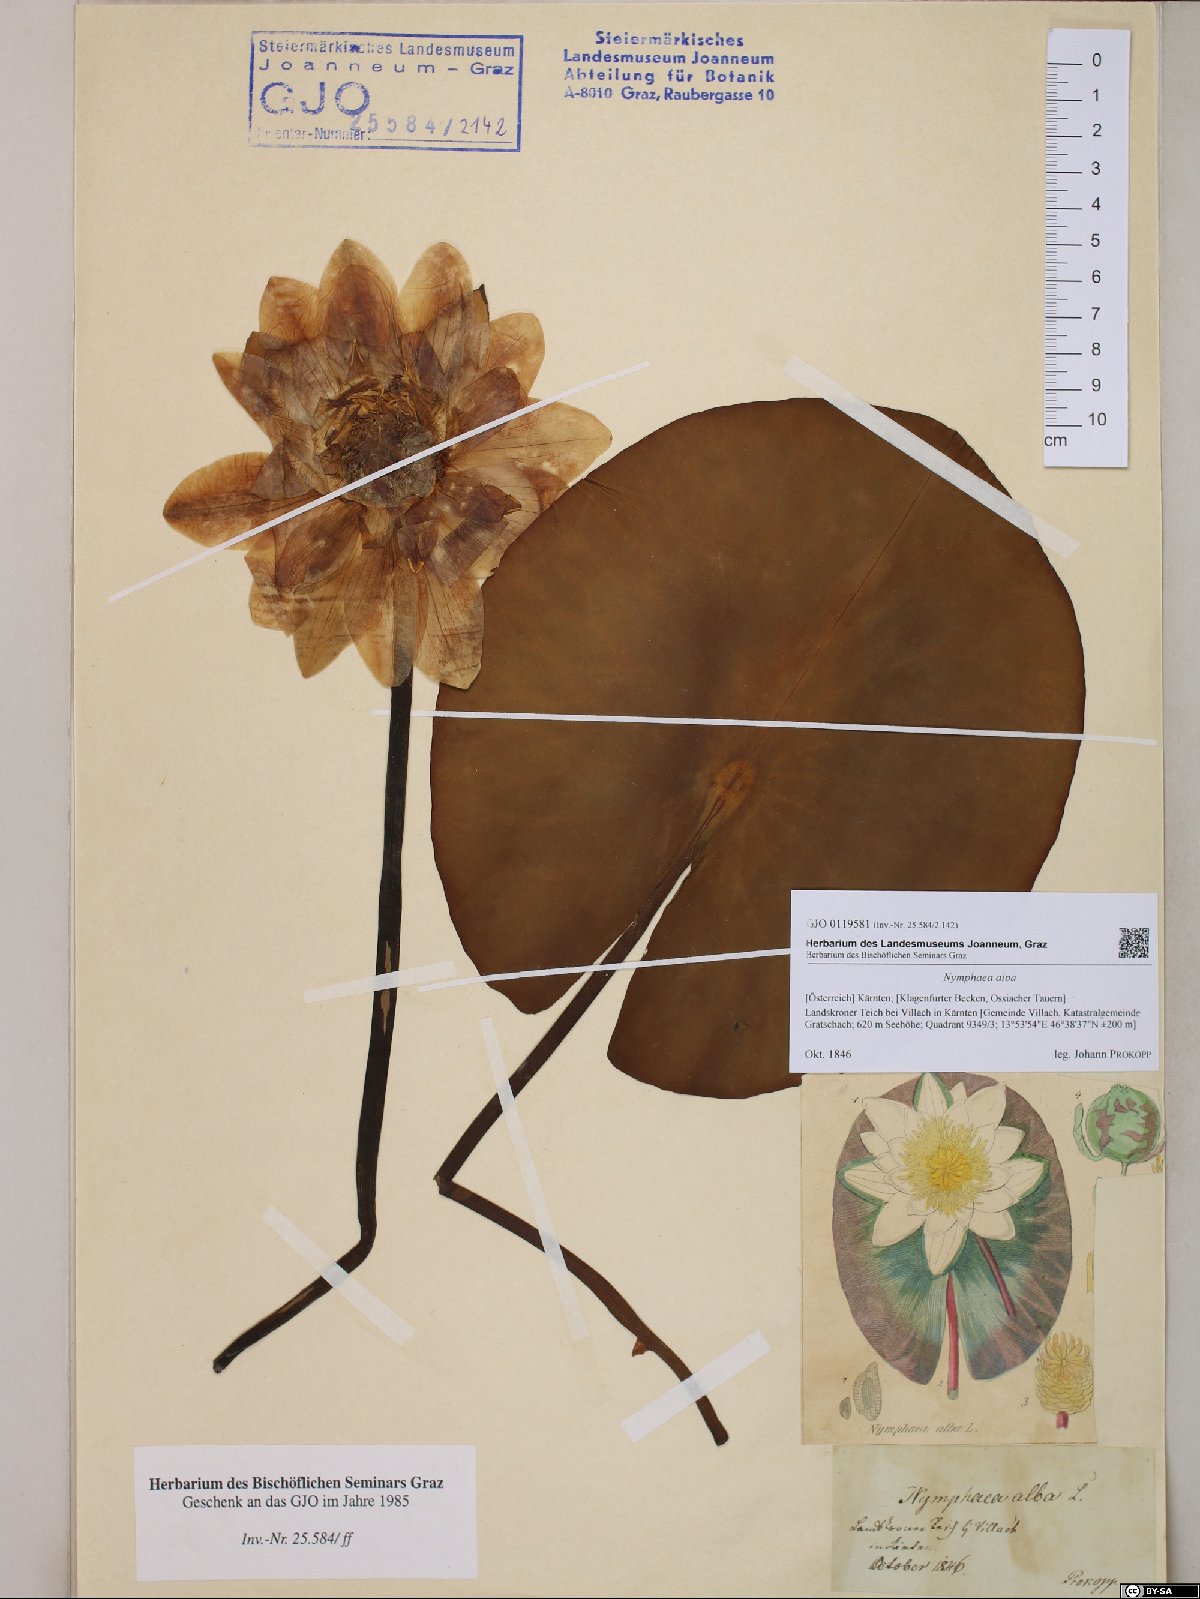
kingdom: Plantae
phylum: Tracheophyta
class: Magnoliopsida
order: Nymphaeales
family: Nymphaeaceae
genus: Nymphaea
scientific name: Nymphaea alba
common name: White water-lily
